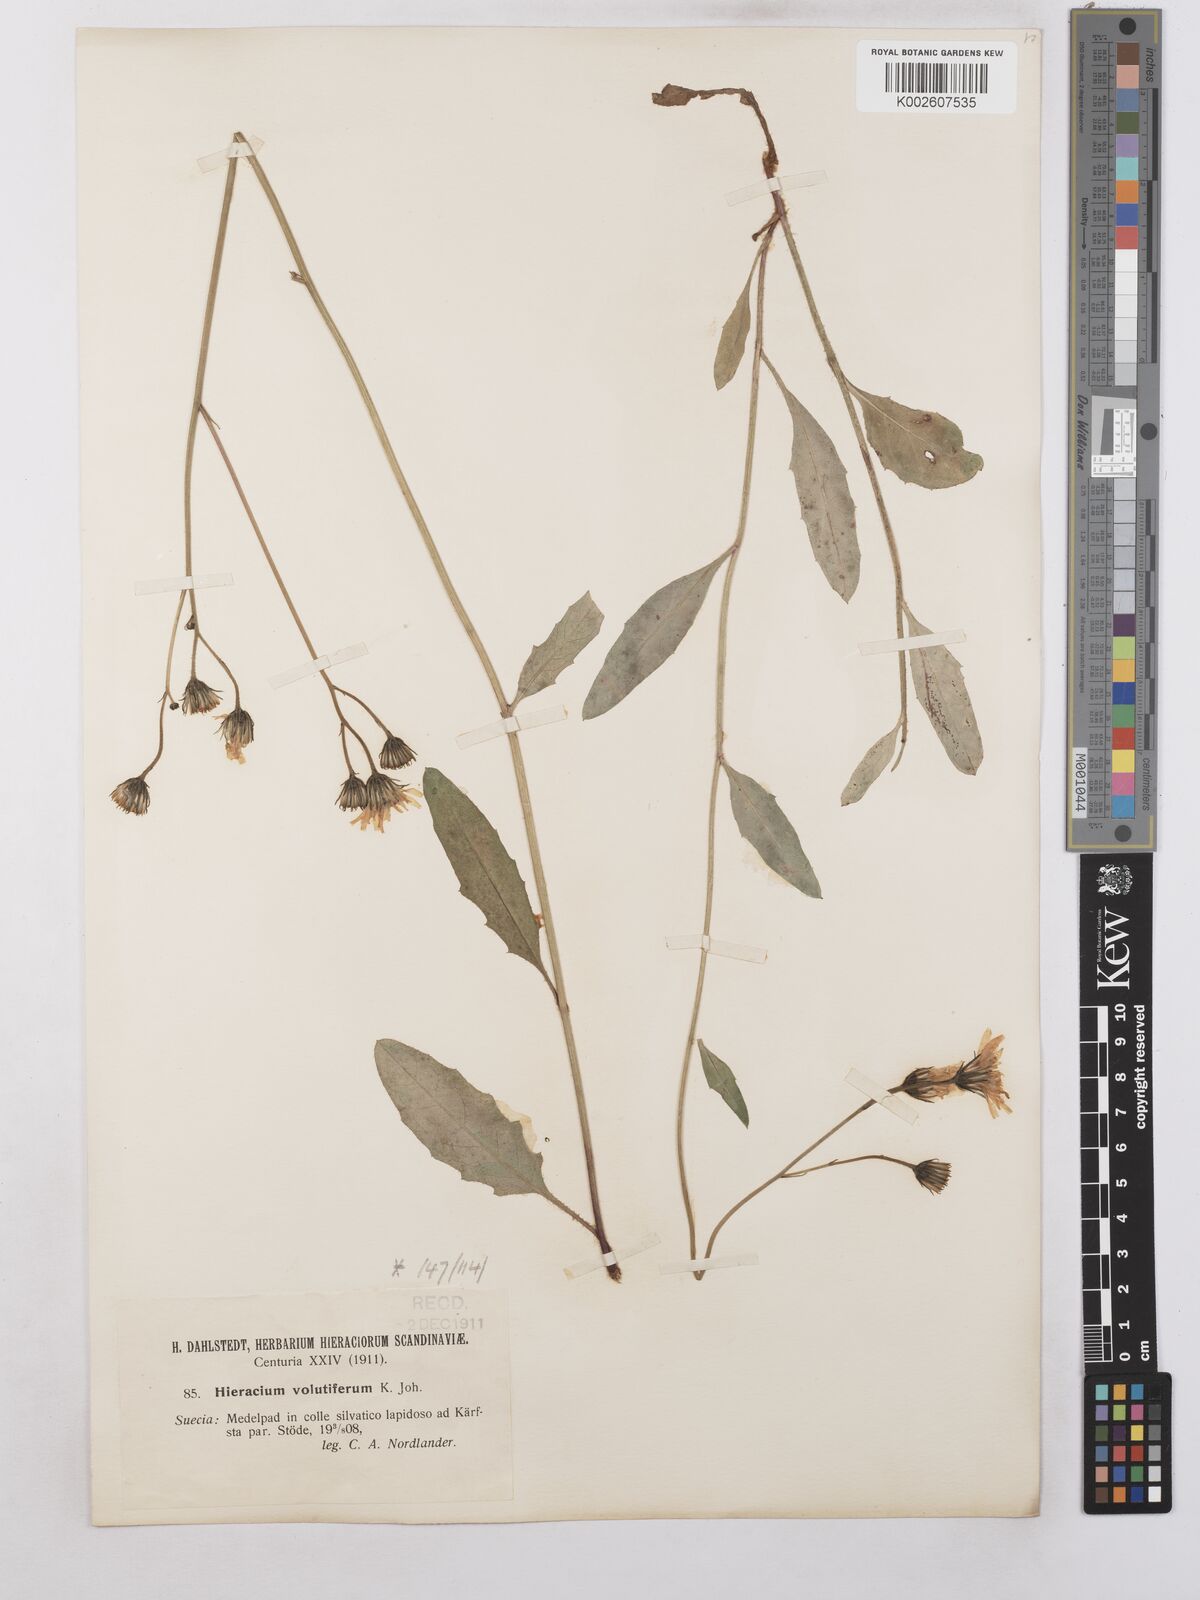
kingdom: Plantae
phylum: Tracheophyta
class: Magnoliopsida
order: Asterales
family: Asteraceae
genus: Hieracium
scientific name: Hieracium caesium
